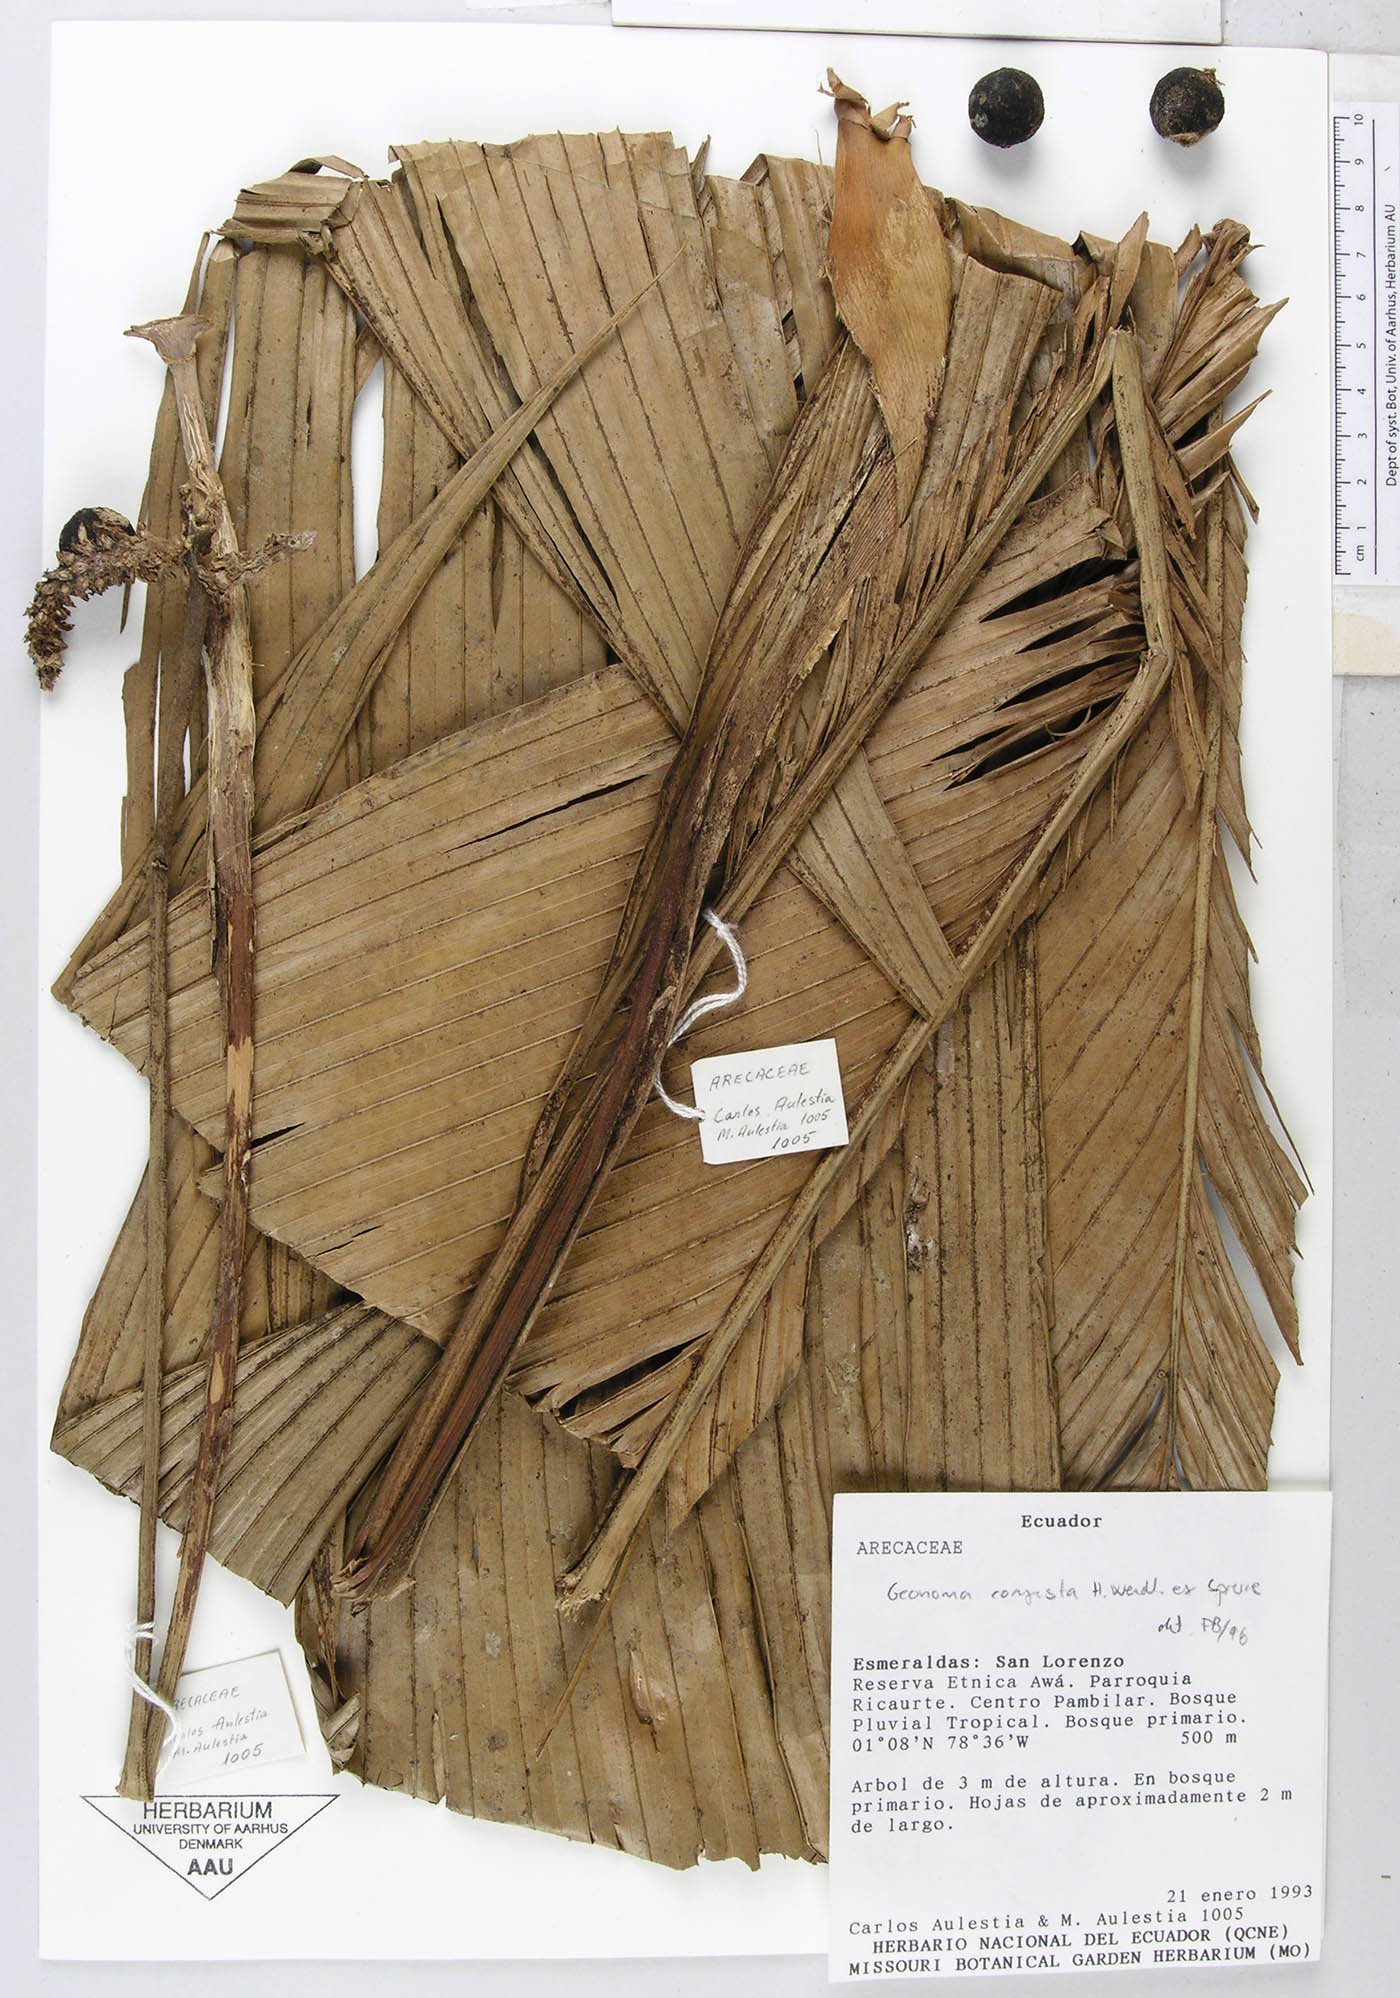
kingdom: Plantae
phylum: Tracheophyta
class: Liliopsida
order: Arecales
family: Arecaceae
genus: Geonoma
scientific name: Geonoma chococola
